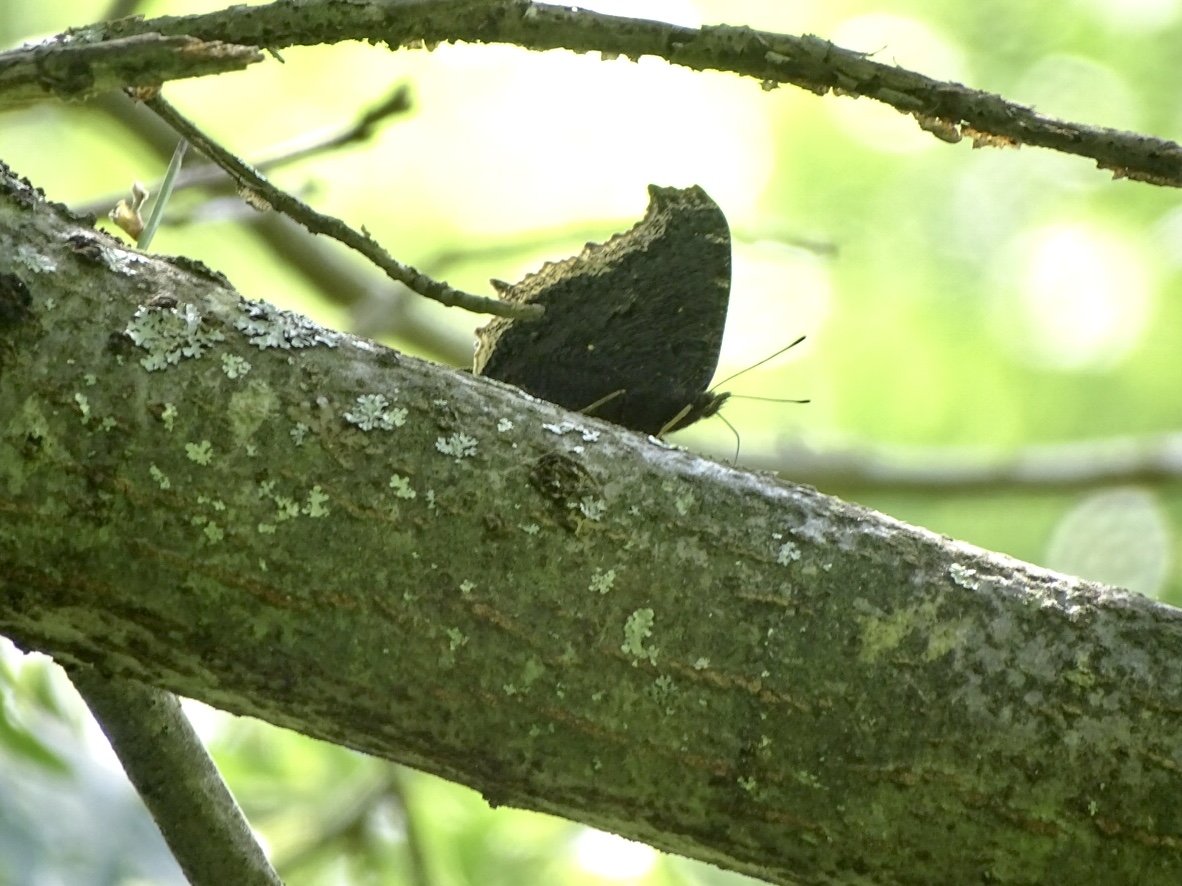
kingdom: Animalia
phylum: Arthropoda
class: Insecta
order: Lepidoptera
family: Nymphalidae
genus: Nymphalis
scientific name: Nymphalis antiopa
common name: Mourning Cloak
